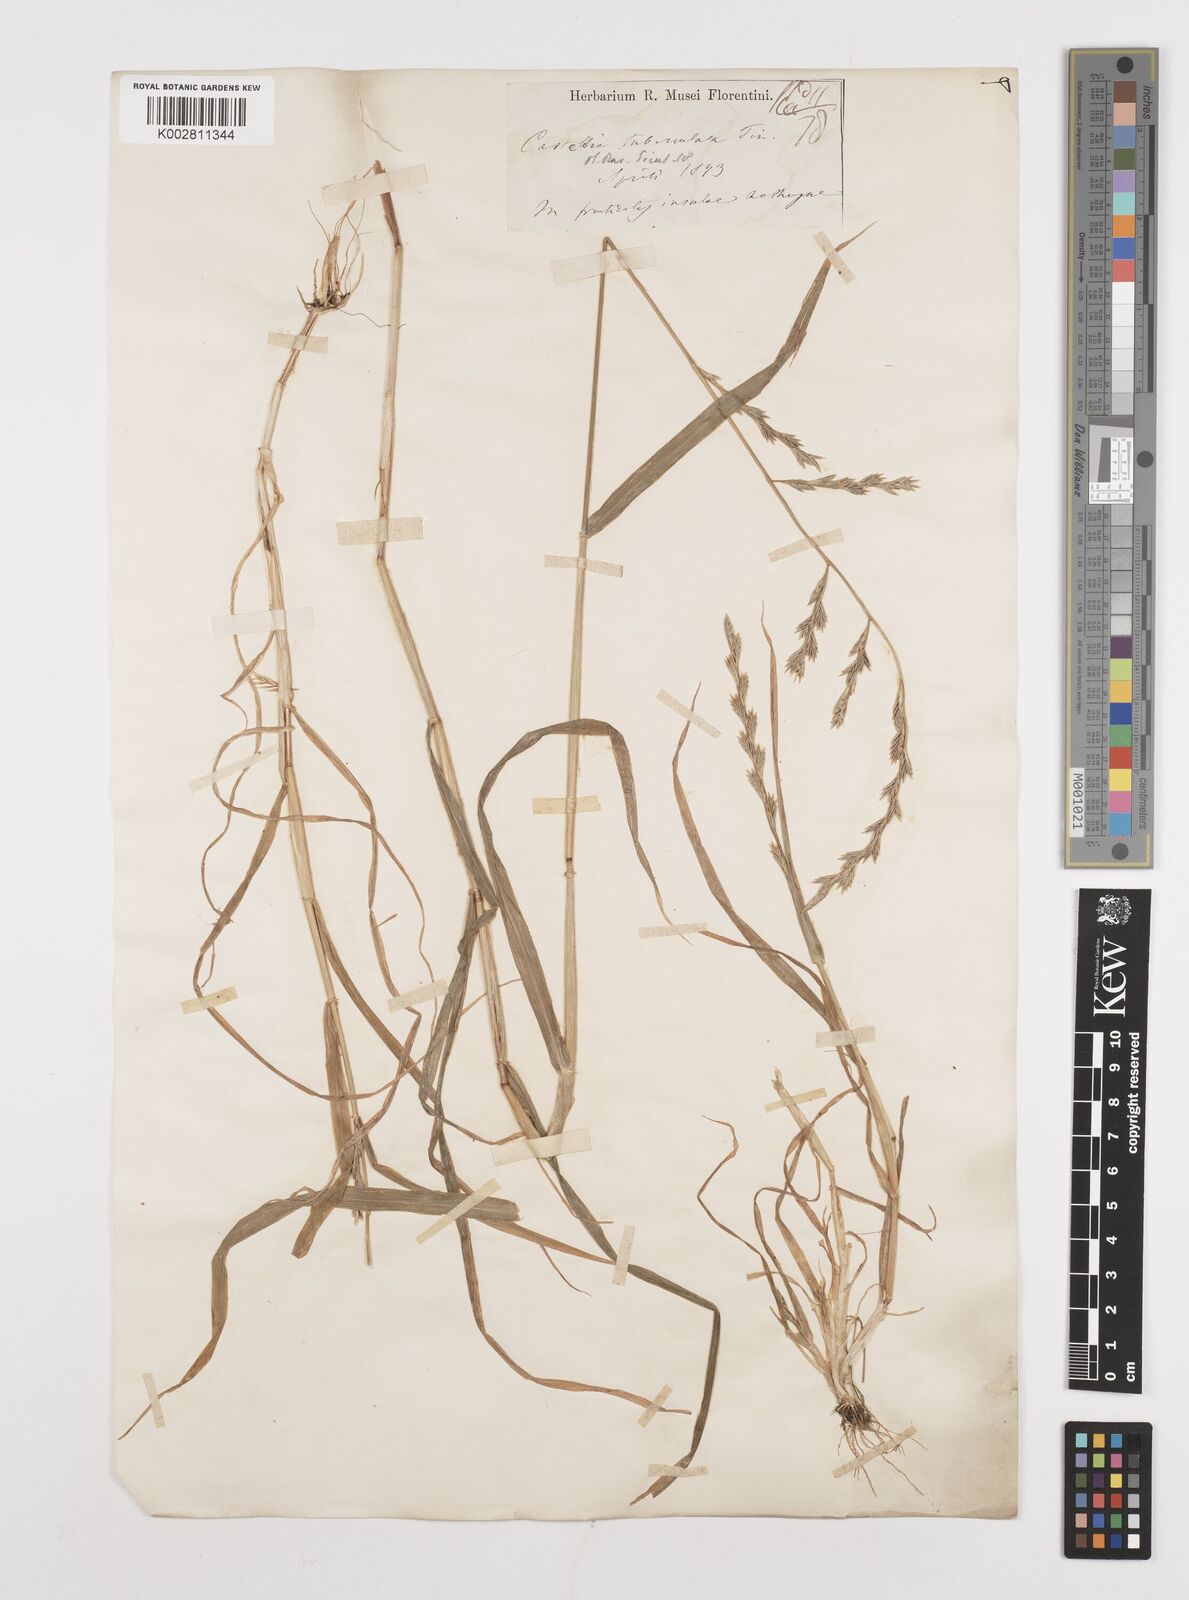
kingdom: Plantae
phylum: Tracheophyta
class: Liliopsida
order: Poales
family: Poaceae
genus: Castellia
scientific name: Castellia tuberculosa
